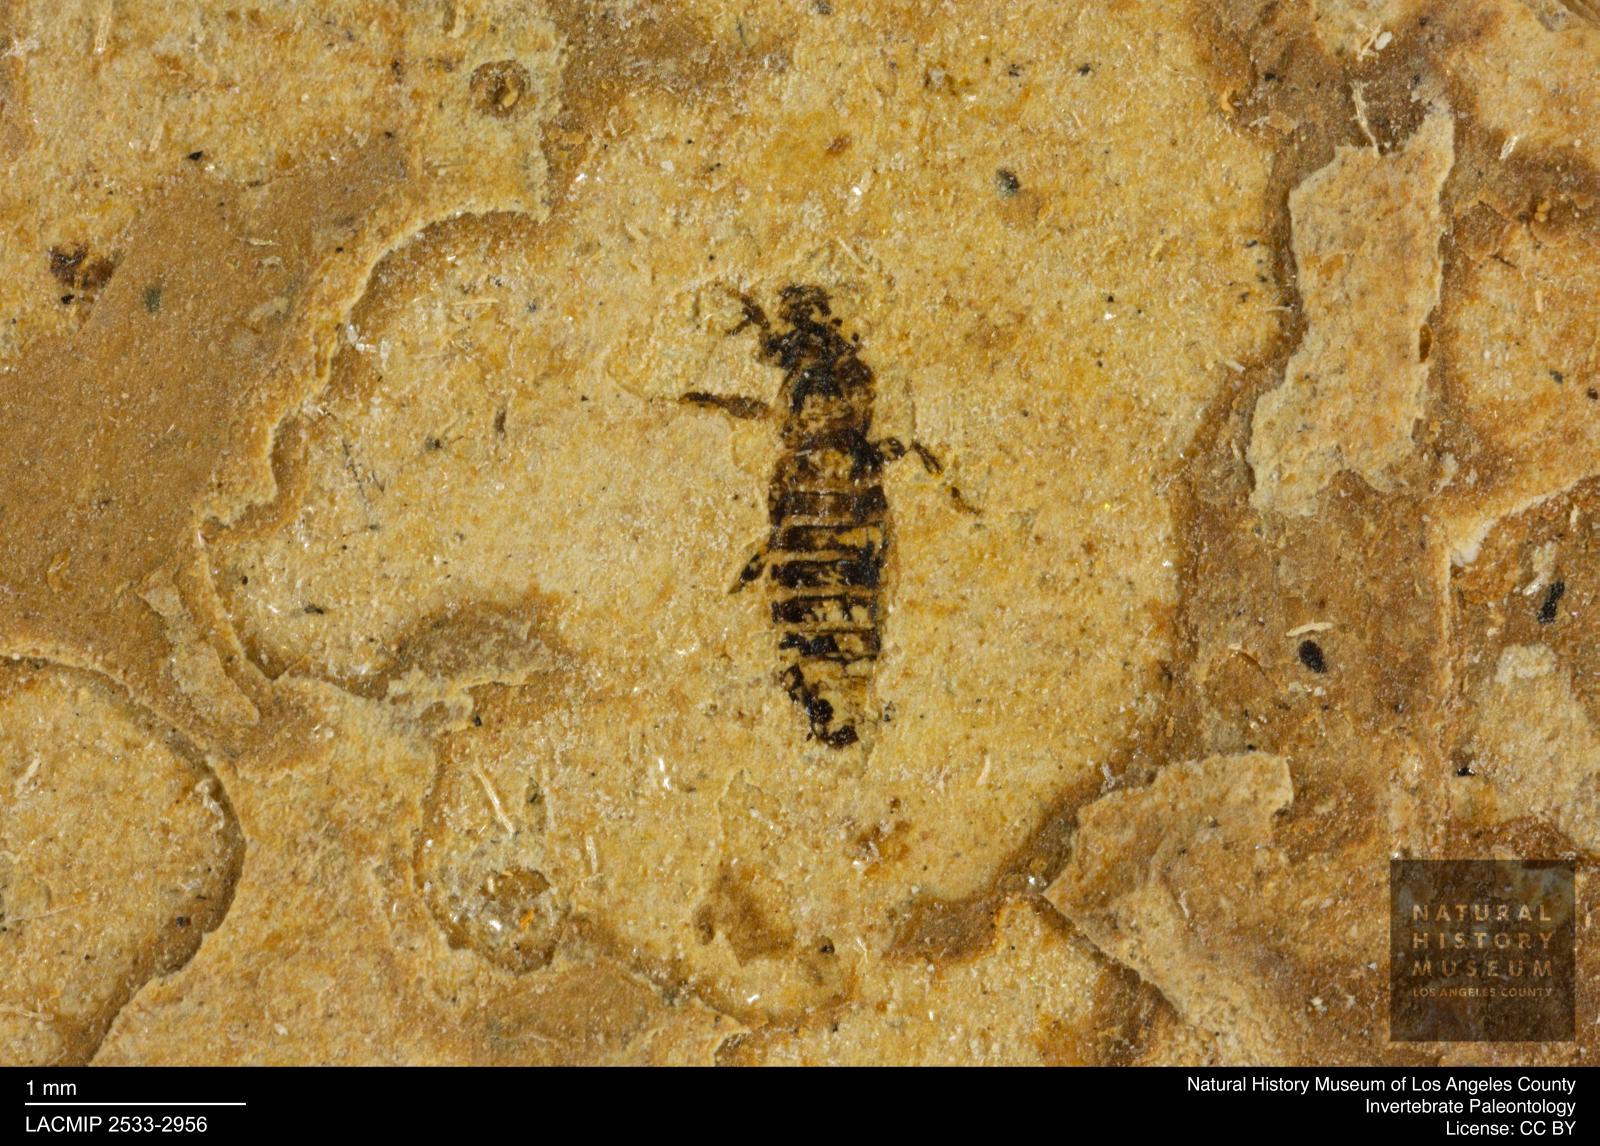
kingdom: Animalia
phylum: Arthropoda
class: Insecta
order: Thysanoptera
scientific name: Thysanoptera
